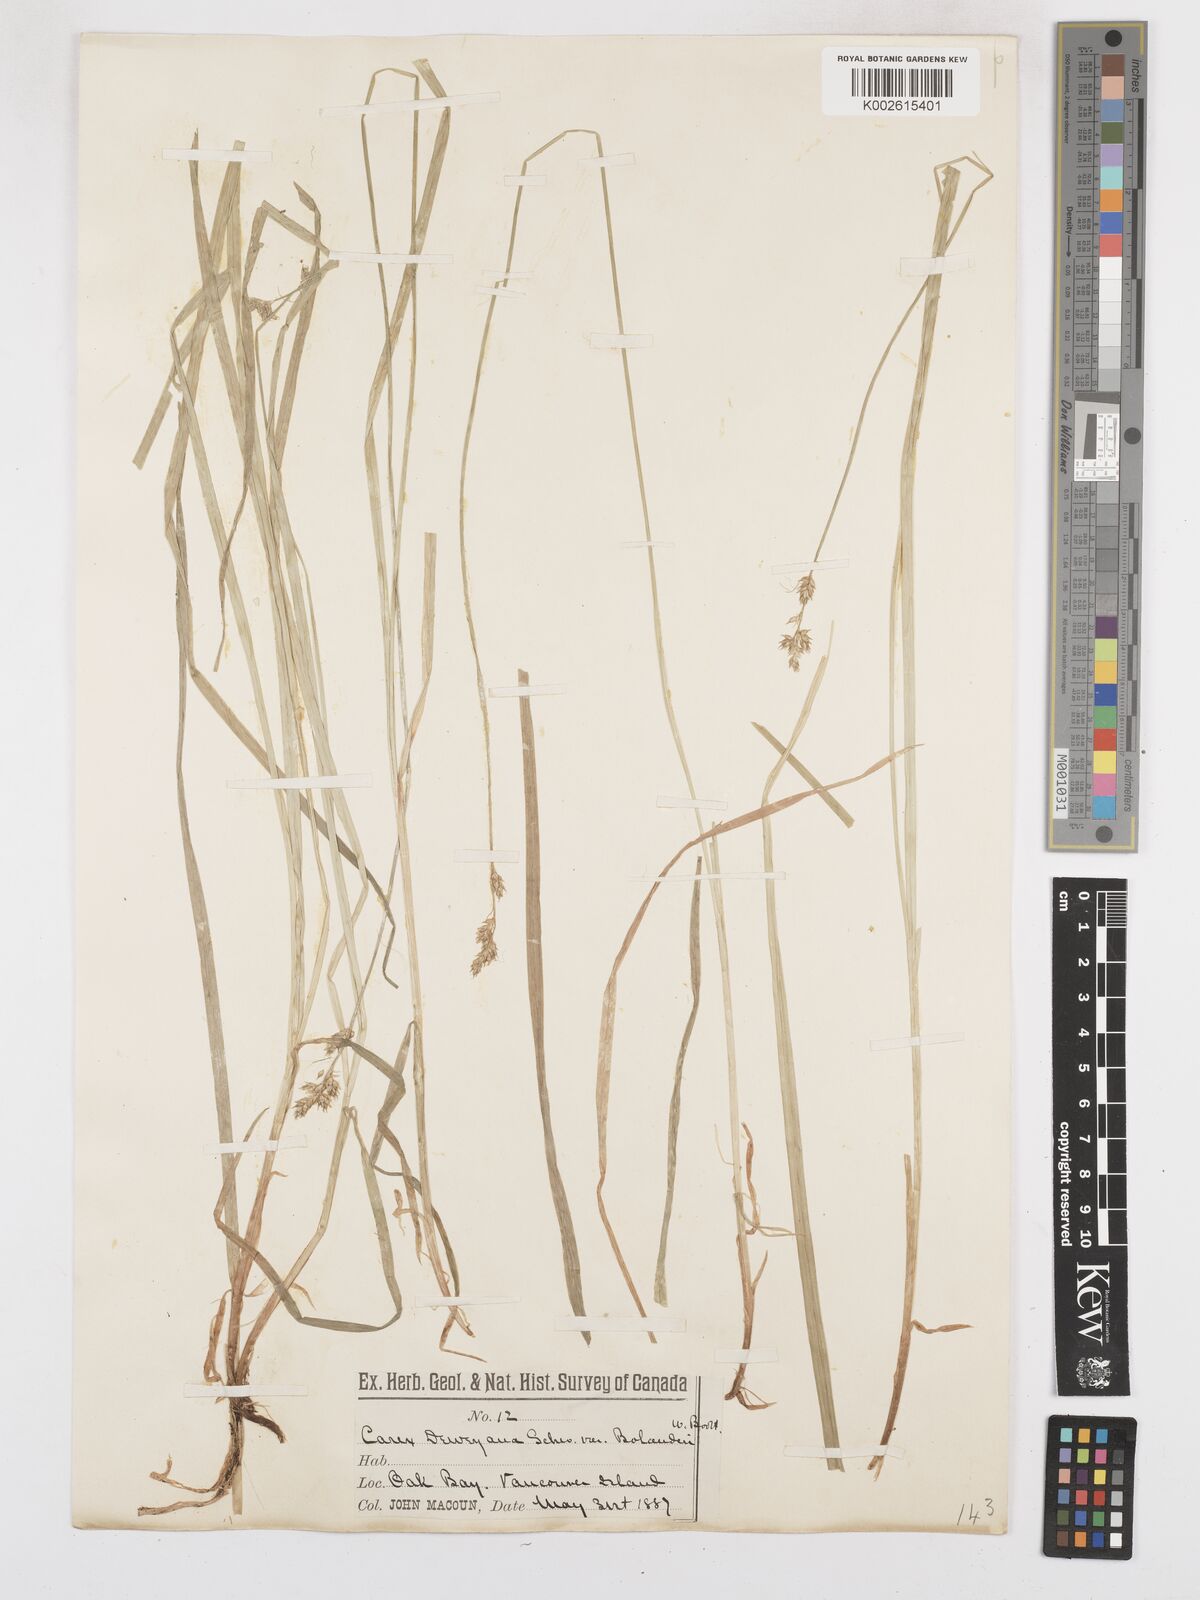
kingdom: Plantae
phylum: Tracheophyta
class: Liliopsida
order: Poales
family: Cyperaceae
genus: Carex
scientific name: Carex bolanderi
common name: Bolander's sedge
